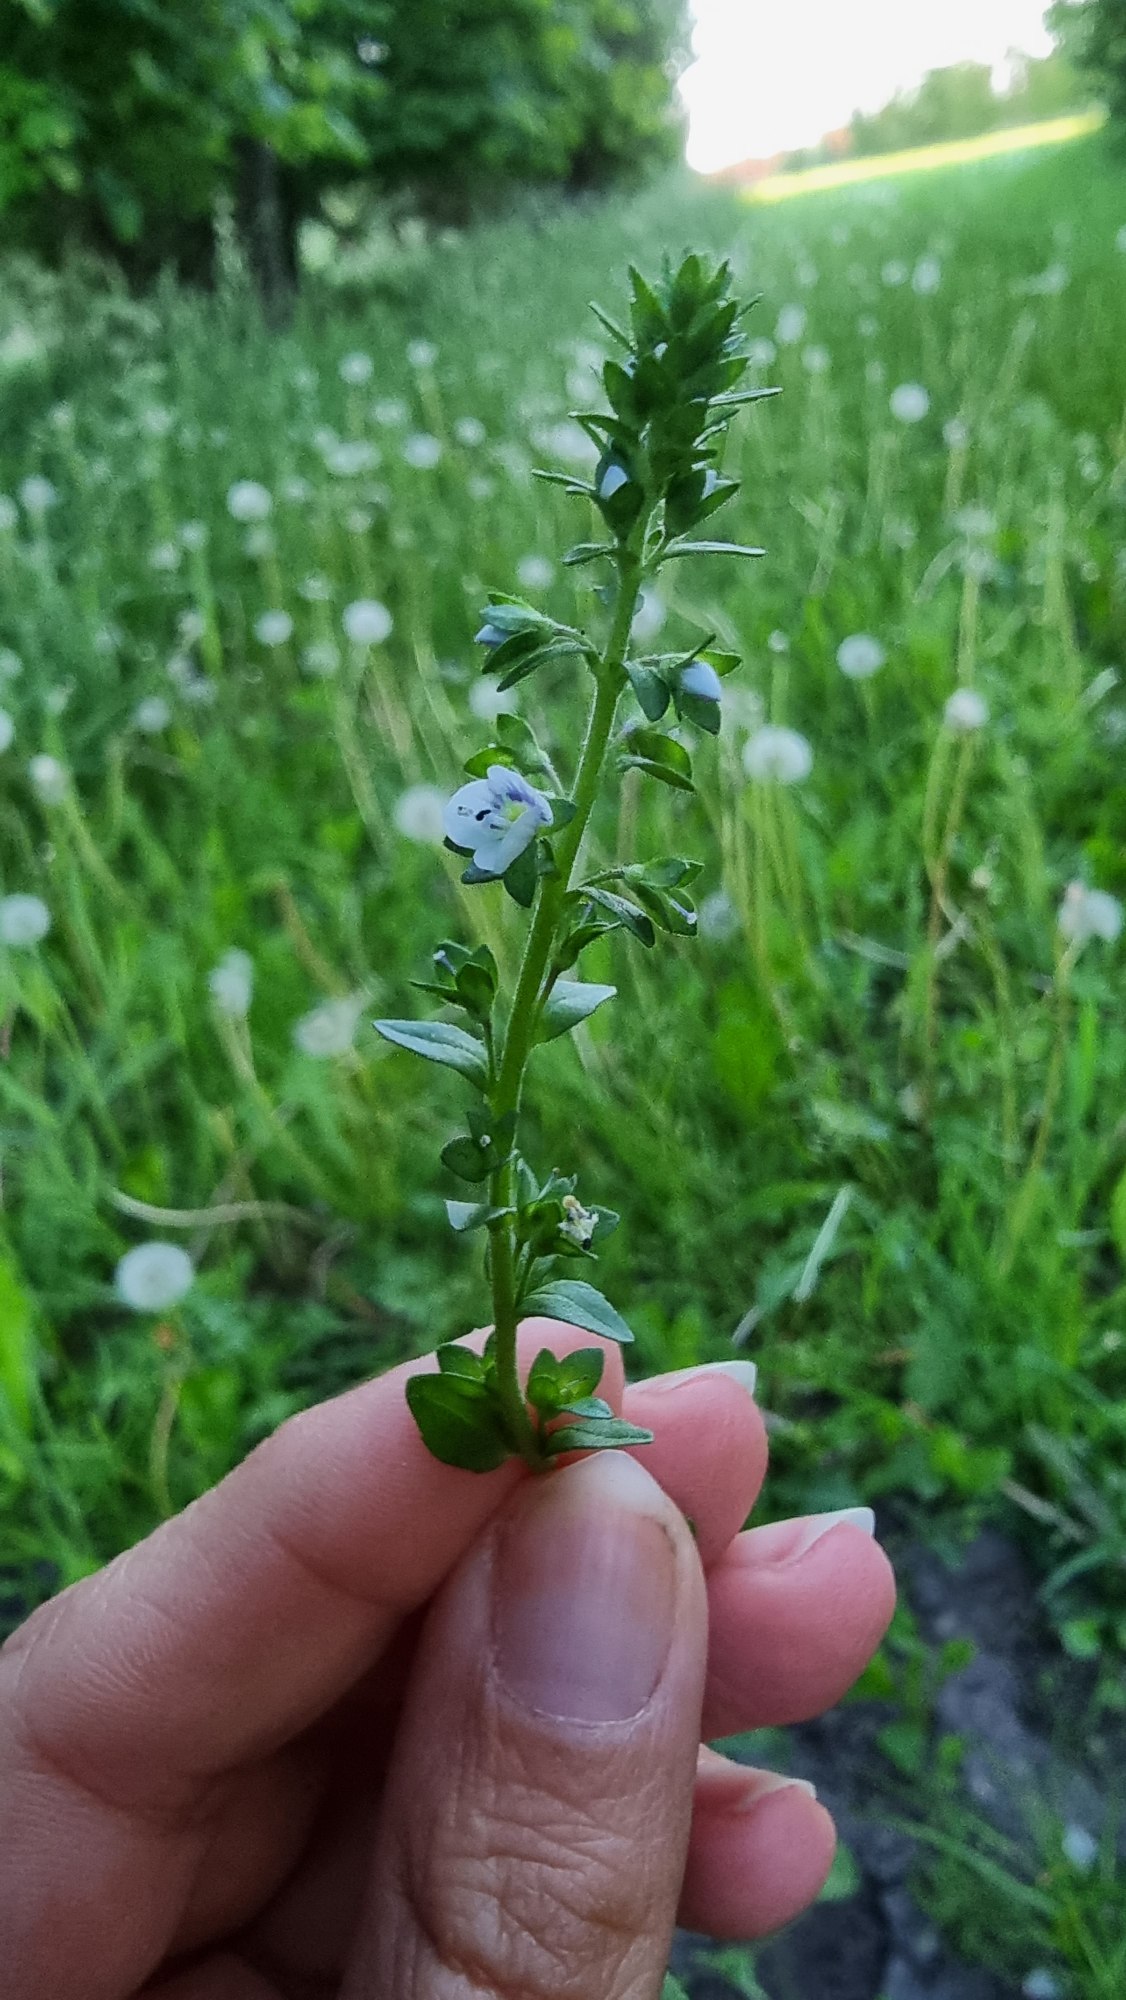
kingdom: Plantae
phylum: Tracheophyta
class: Magnoliopsida
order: Lamiales
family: Plantaginaceae
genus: Veronica
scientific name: Veronica serpyllifolia
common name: Glat ærenpris
